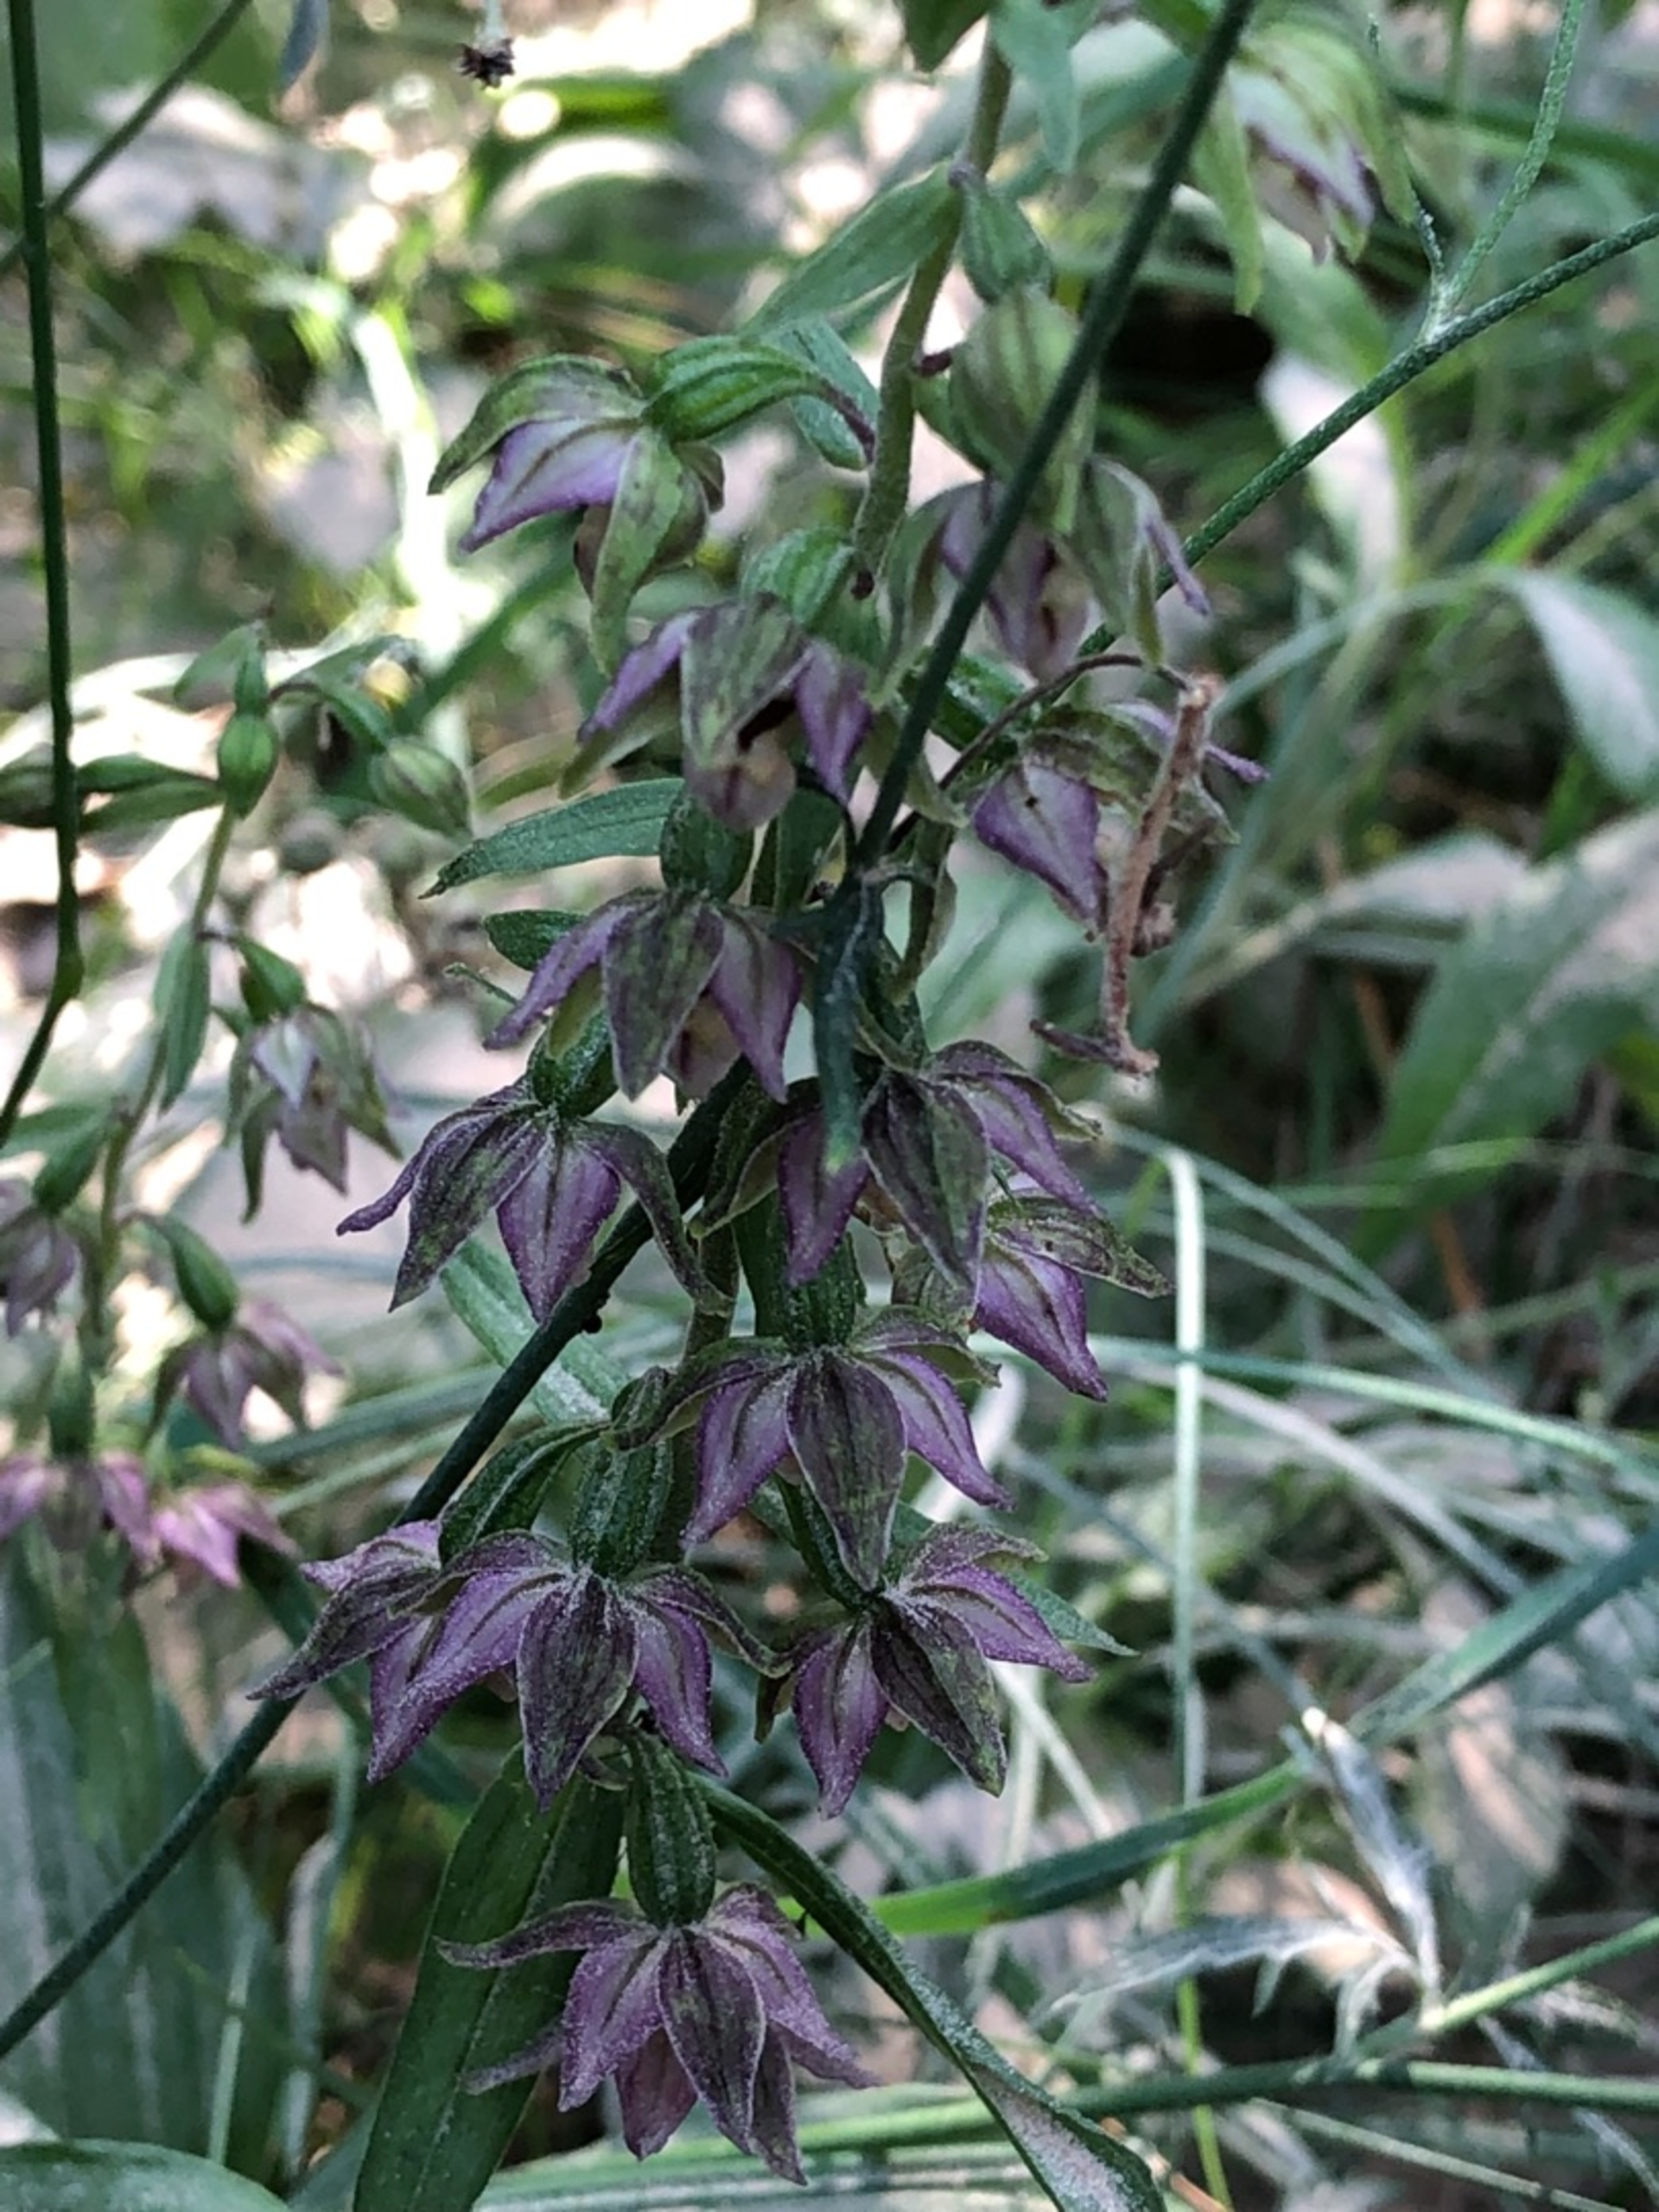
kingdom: Plantae
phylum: Tracheophyta
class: Liliopsida
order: Asparagales
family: Orchidaceae
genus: Epipactis
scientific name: Epipactis helleborine
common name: Skov-hullæbe
